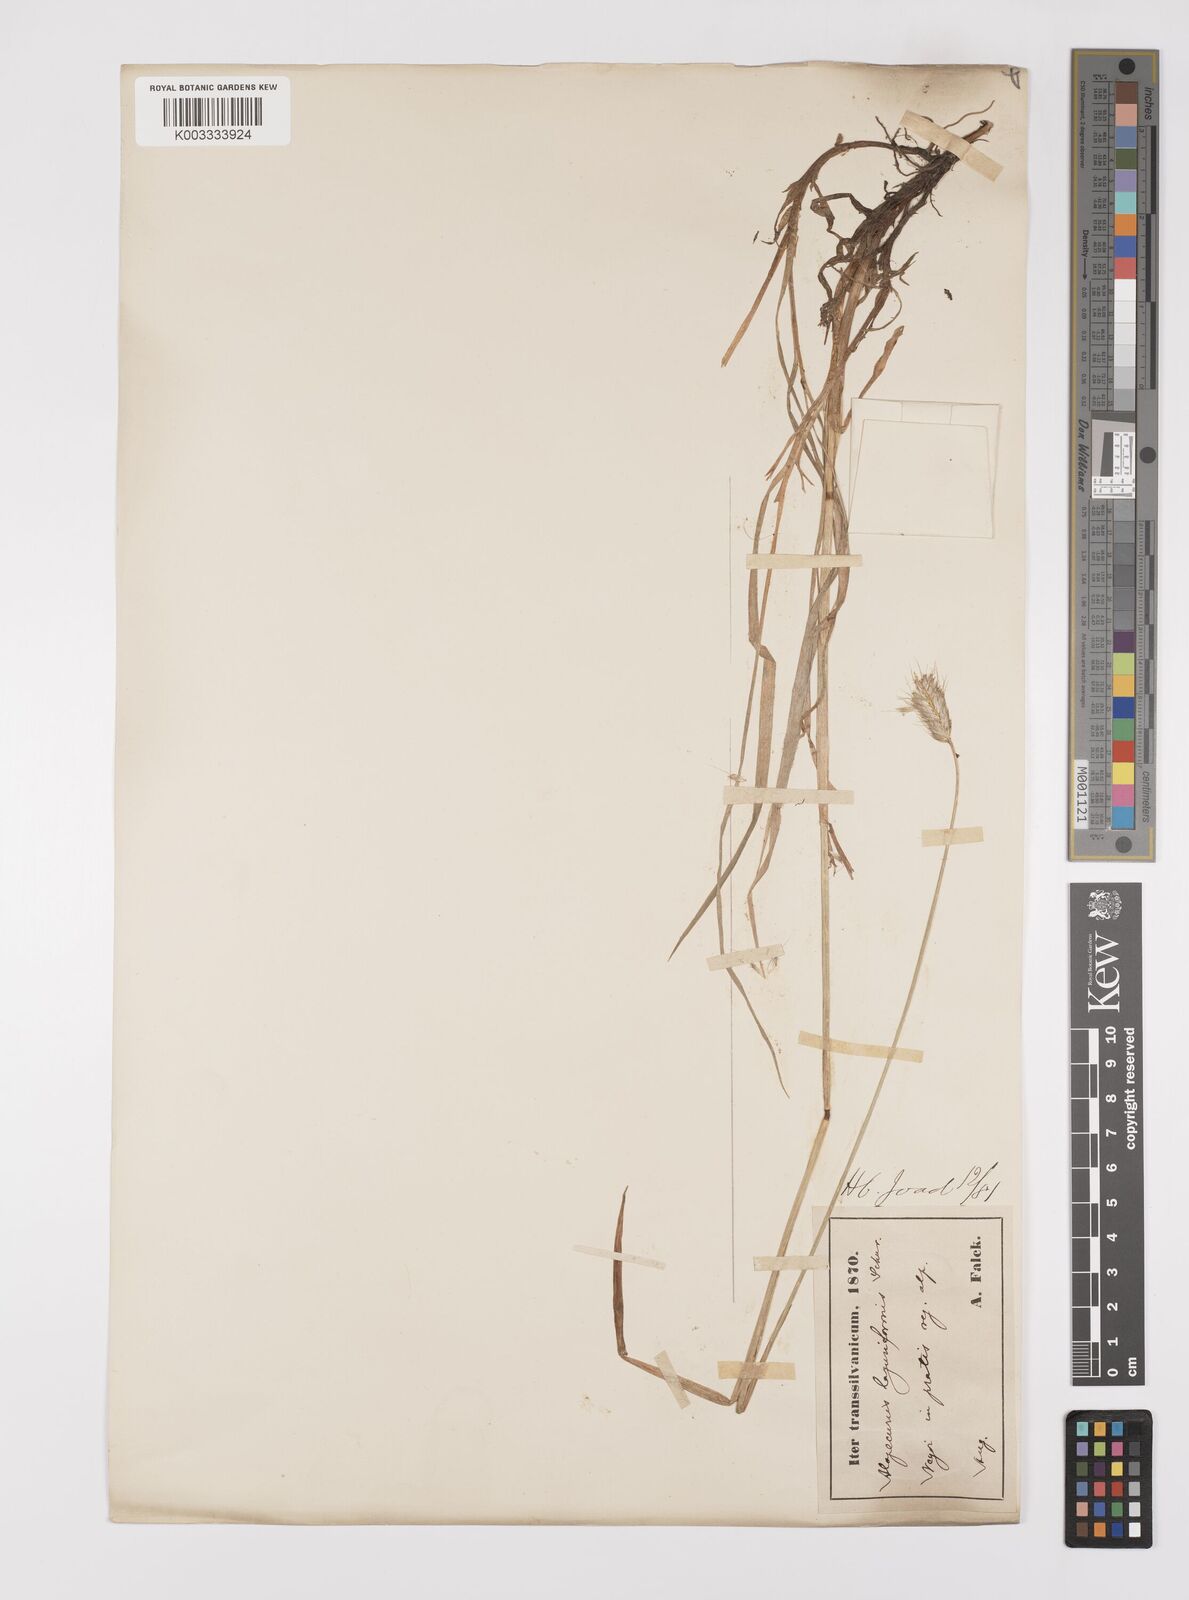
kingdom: Plantae
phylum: Tracheophyta
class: Liliopsida
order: Poales
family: Poaceae
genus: Alopecurus
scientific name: Alopecurus pratensis
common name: Meadow foxtail
